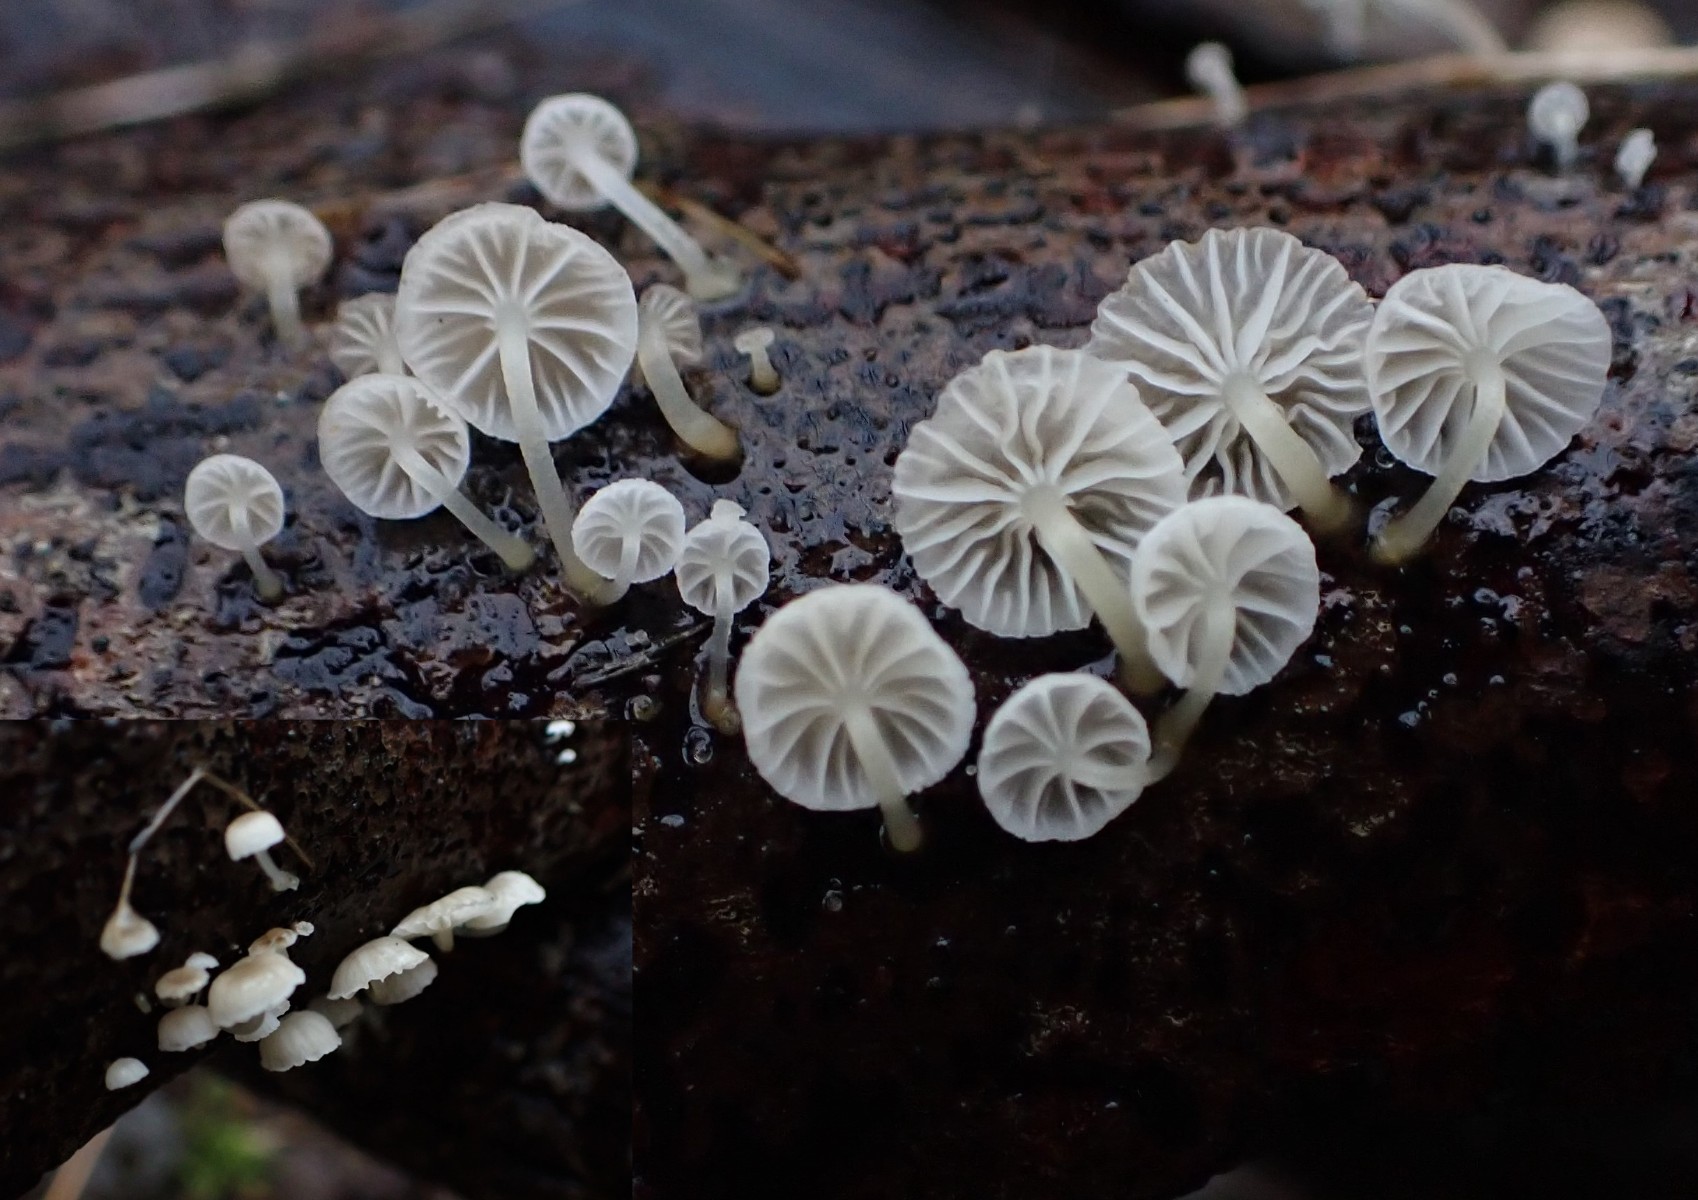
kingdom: Fungi
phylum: Basidiomycota
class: Agaricomycetes
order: Agaricales
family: Porotheleaceae
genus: Phloeomana
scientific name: Phloeomana speirea
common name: kvist-huesvamp
